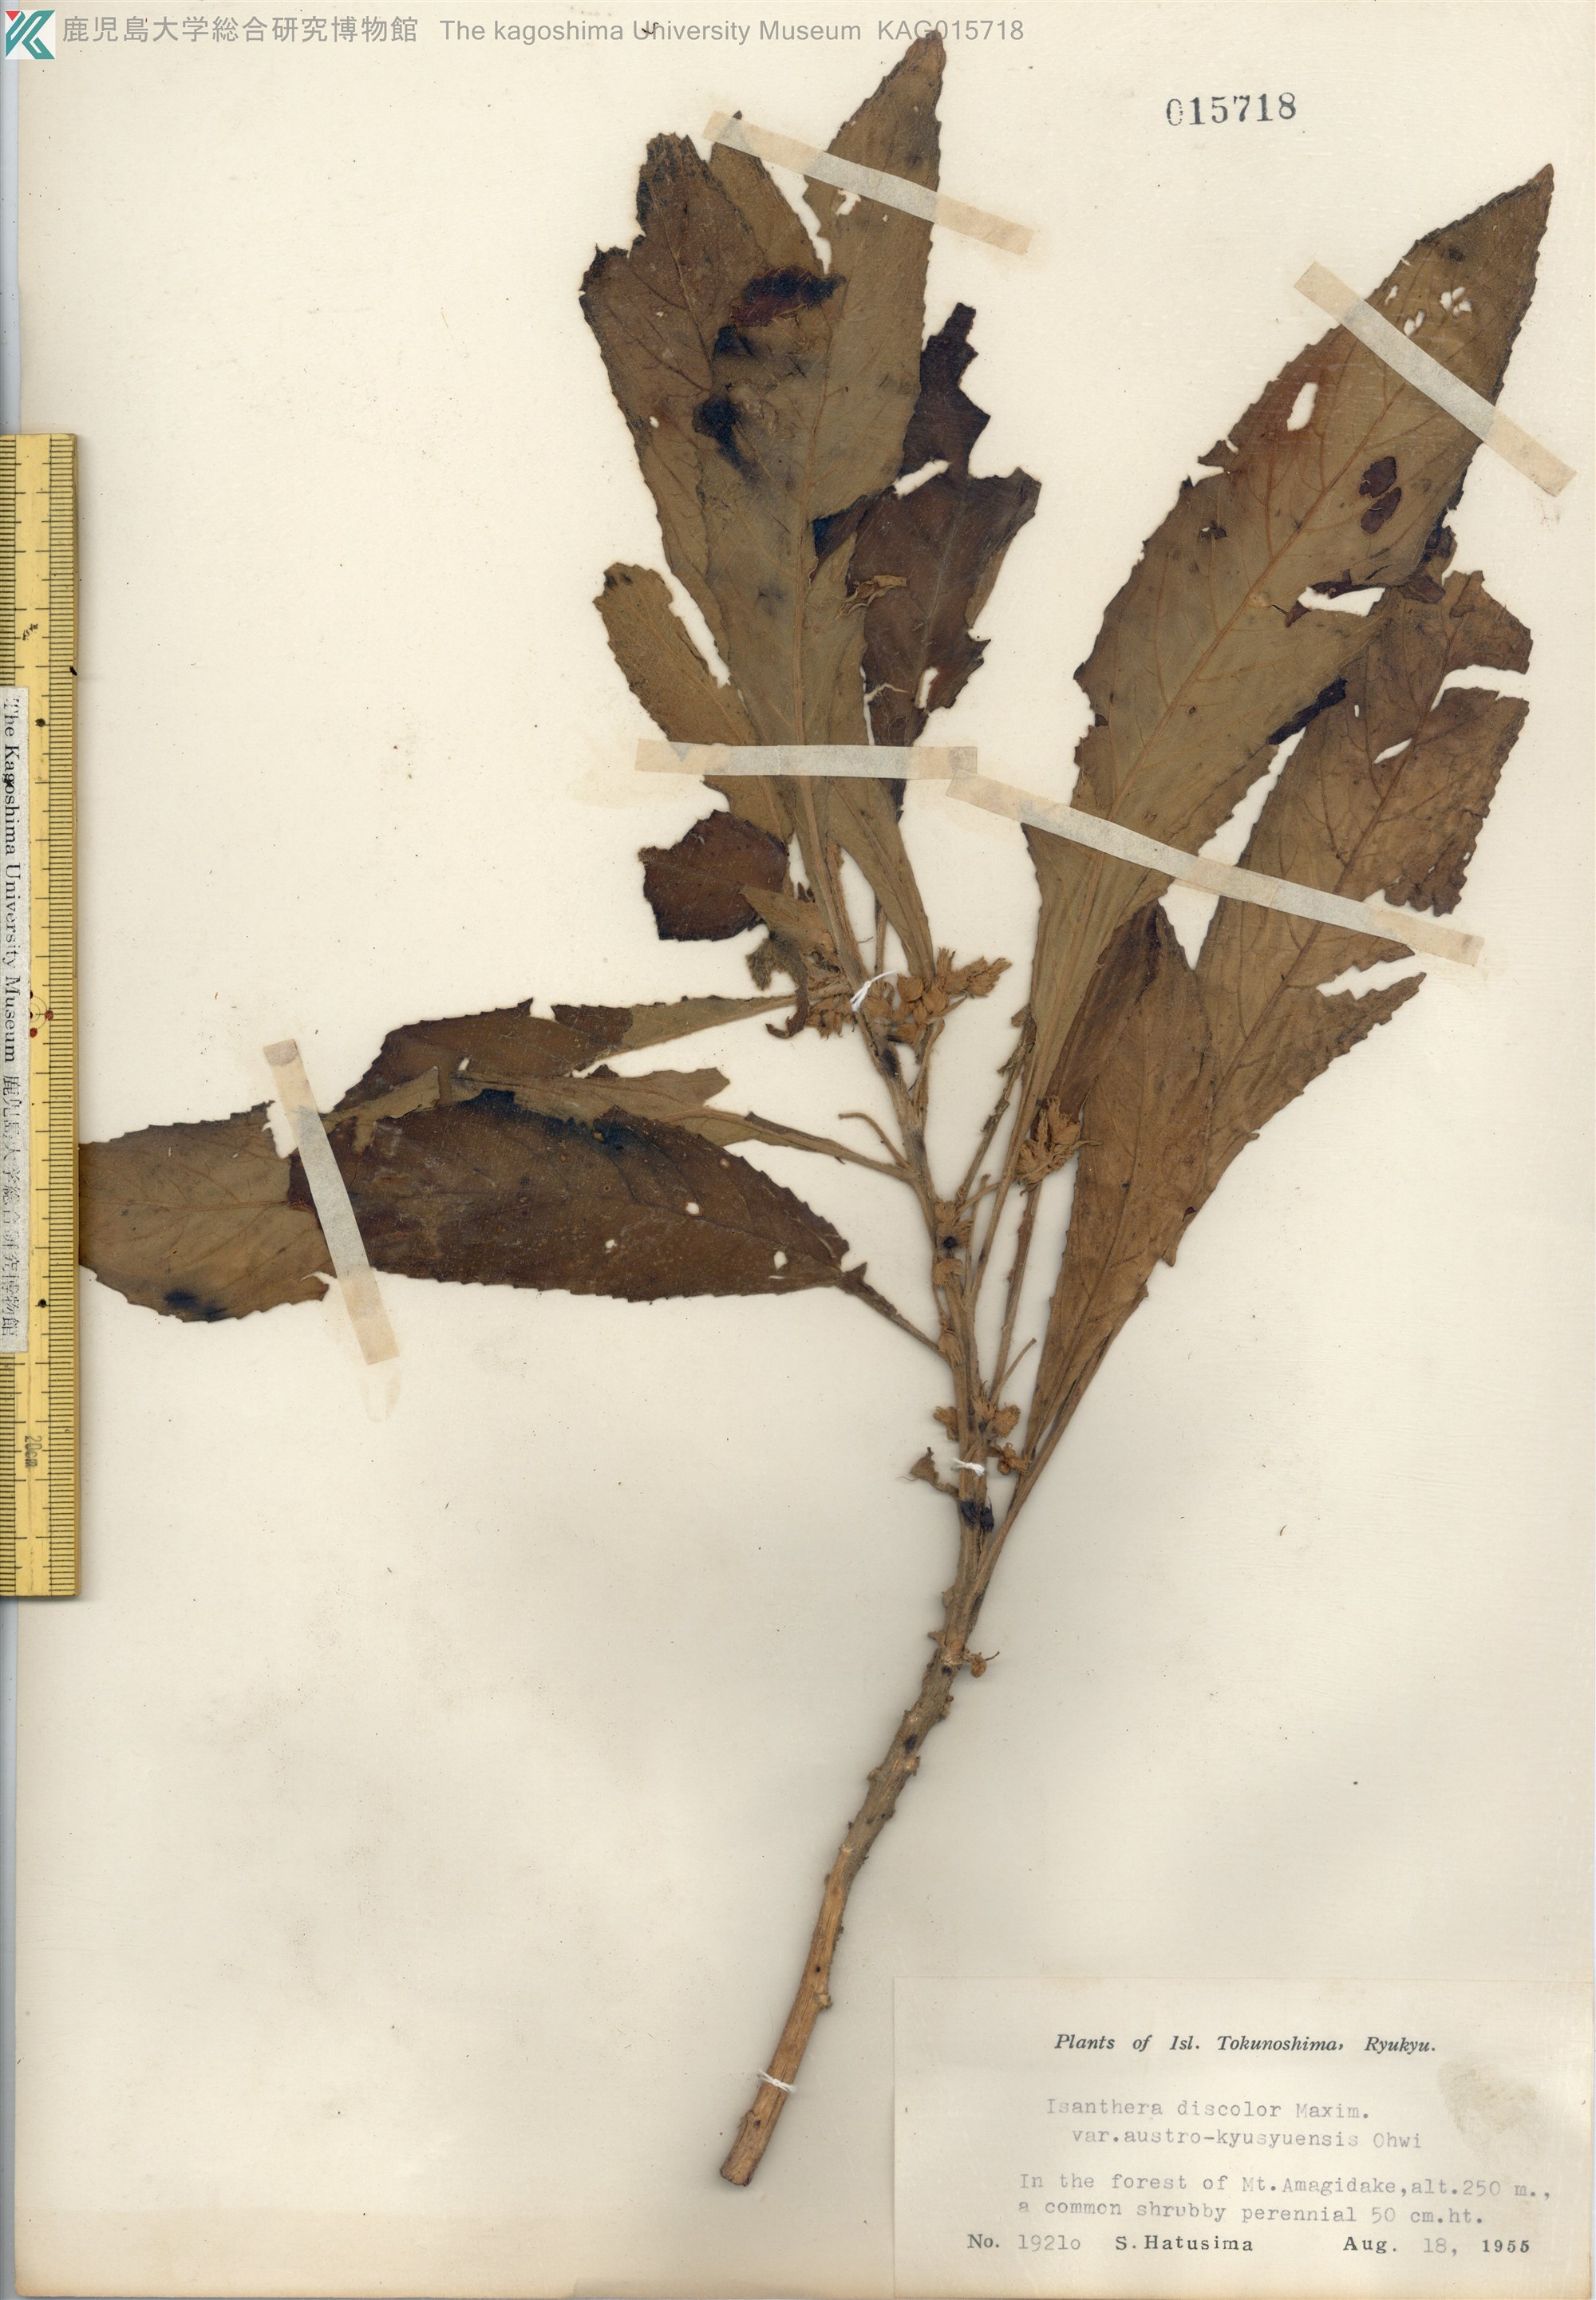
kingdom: Plantae
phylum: Tracheophyta
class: Magnoliopsida
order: Lamiales
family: Gesneriaceae
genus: Rhynchotechum
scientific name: Rhynchotechum discolor
